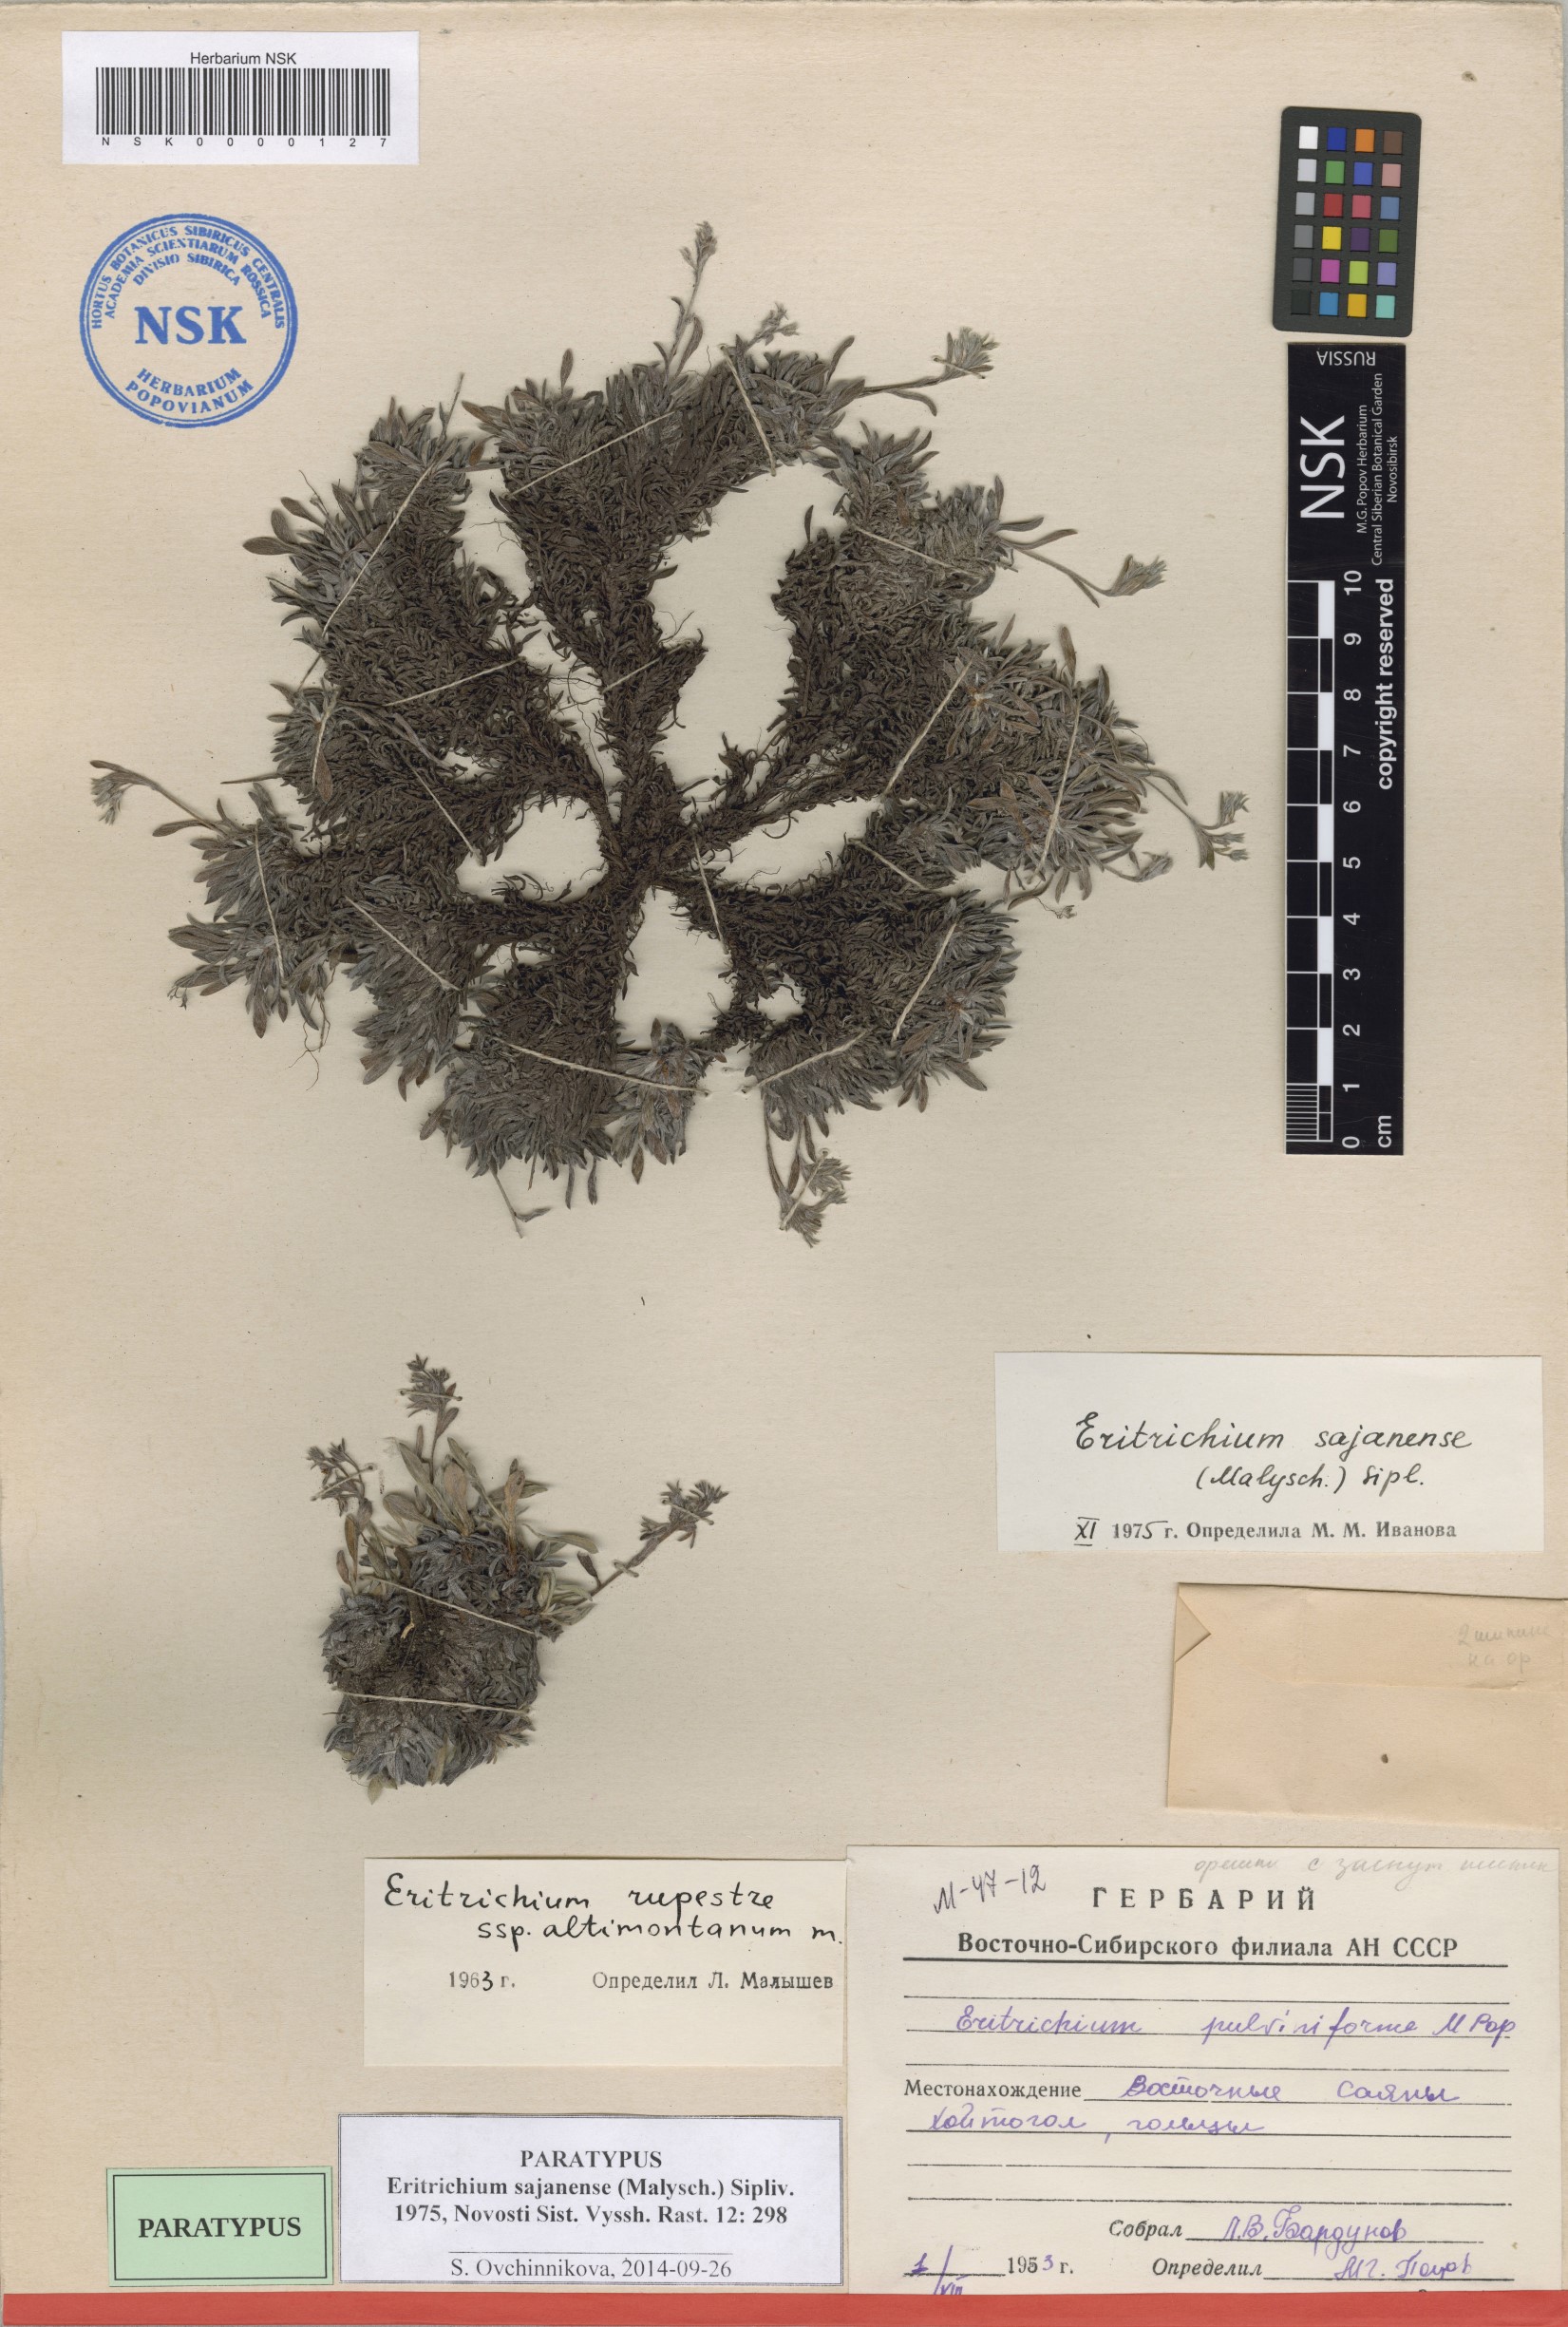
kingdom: Plantae
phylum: Tracheophyta
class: Magnoliopsida
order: Boraginales
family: Boraginaceae
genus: Eritrichium
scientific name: Eritrichium sajanense
